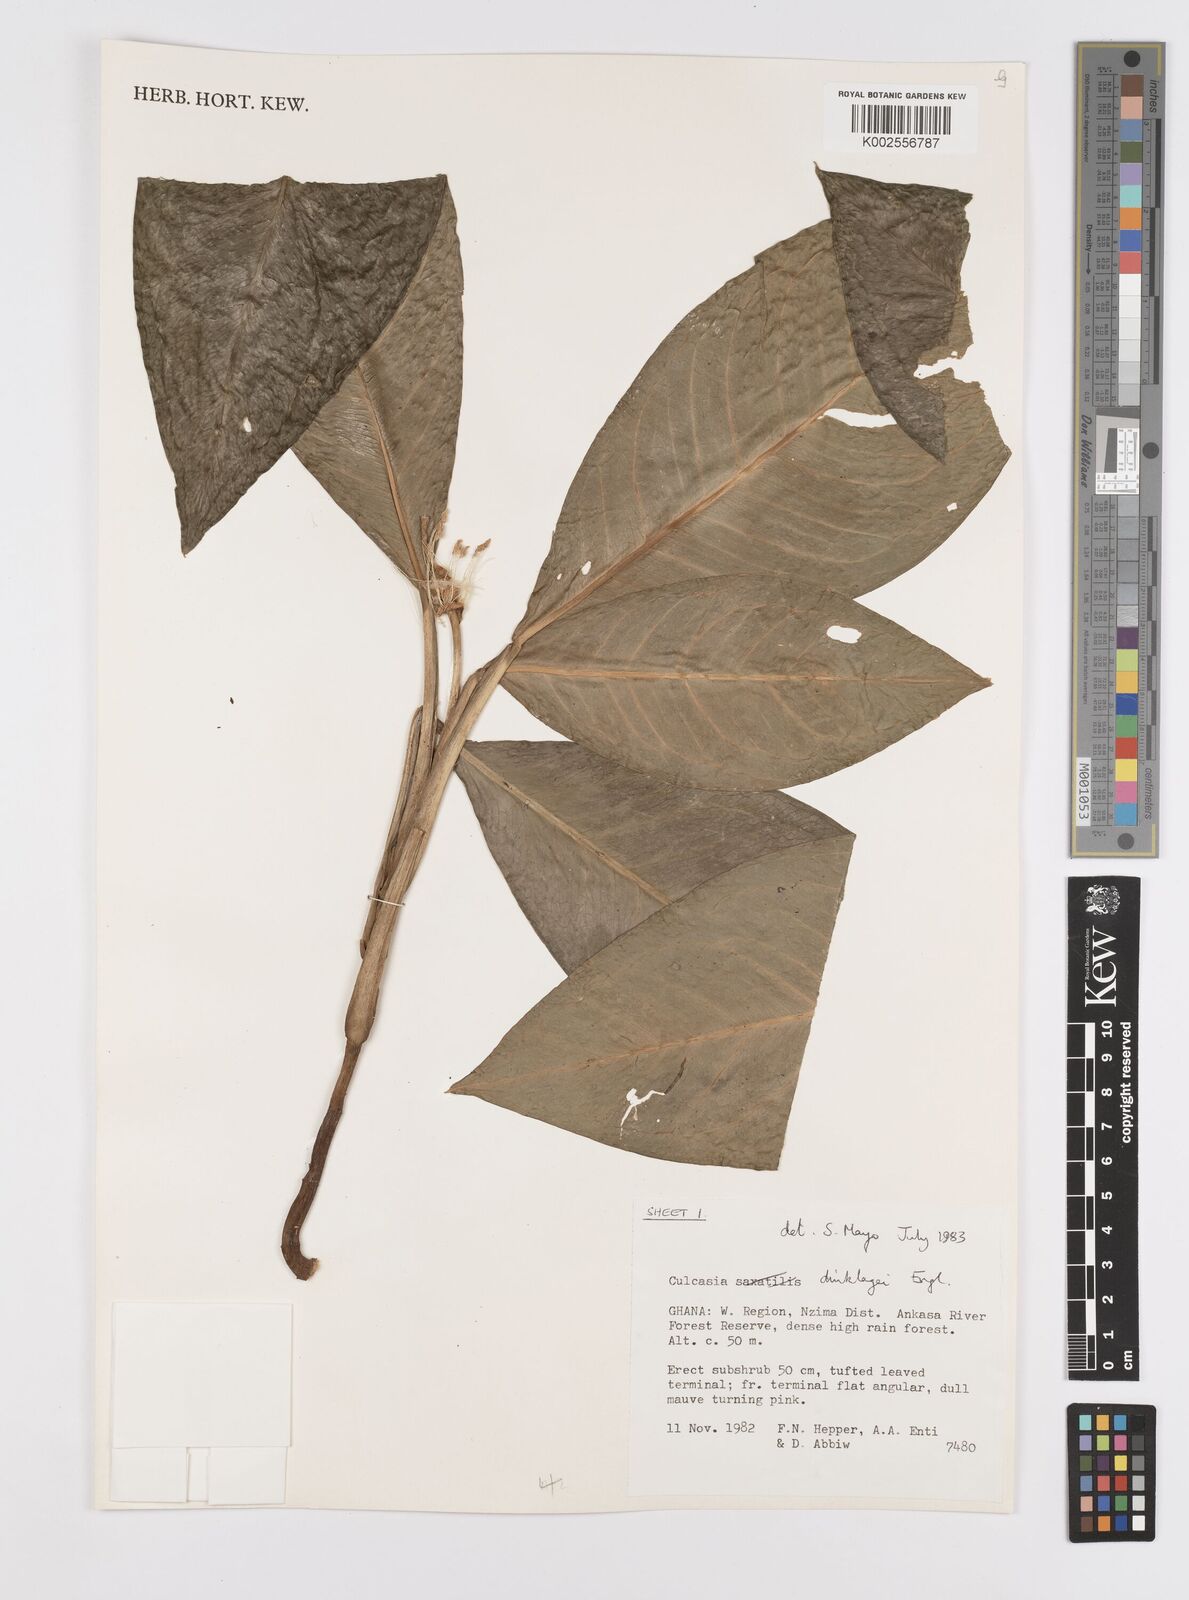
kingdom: Plantae
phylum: Tracheophyta
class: Liliopsida
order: Alismatales
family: Araceae
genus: Culcasia
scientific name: Culcasia dinklagei
